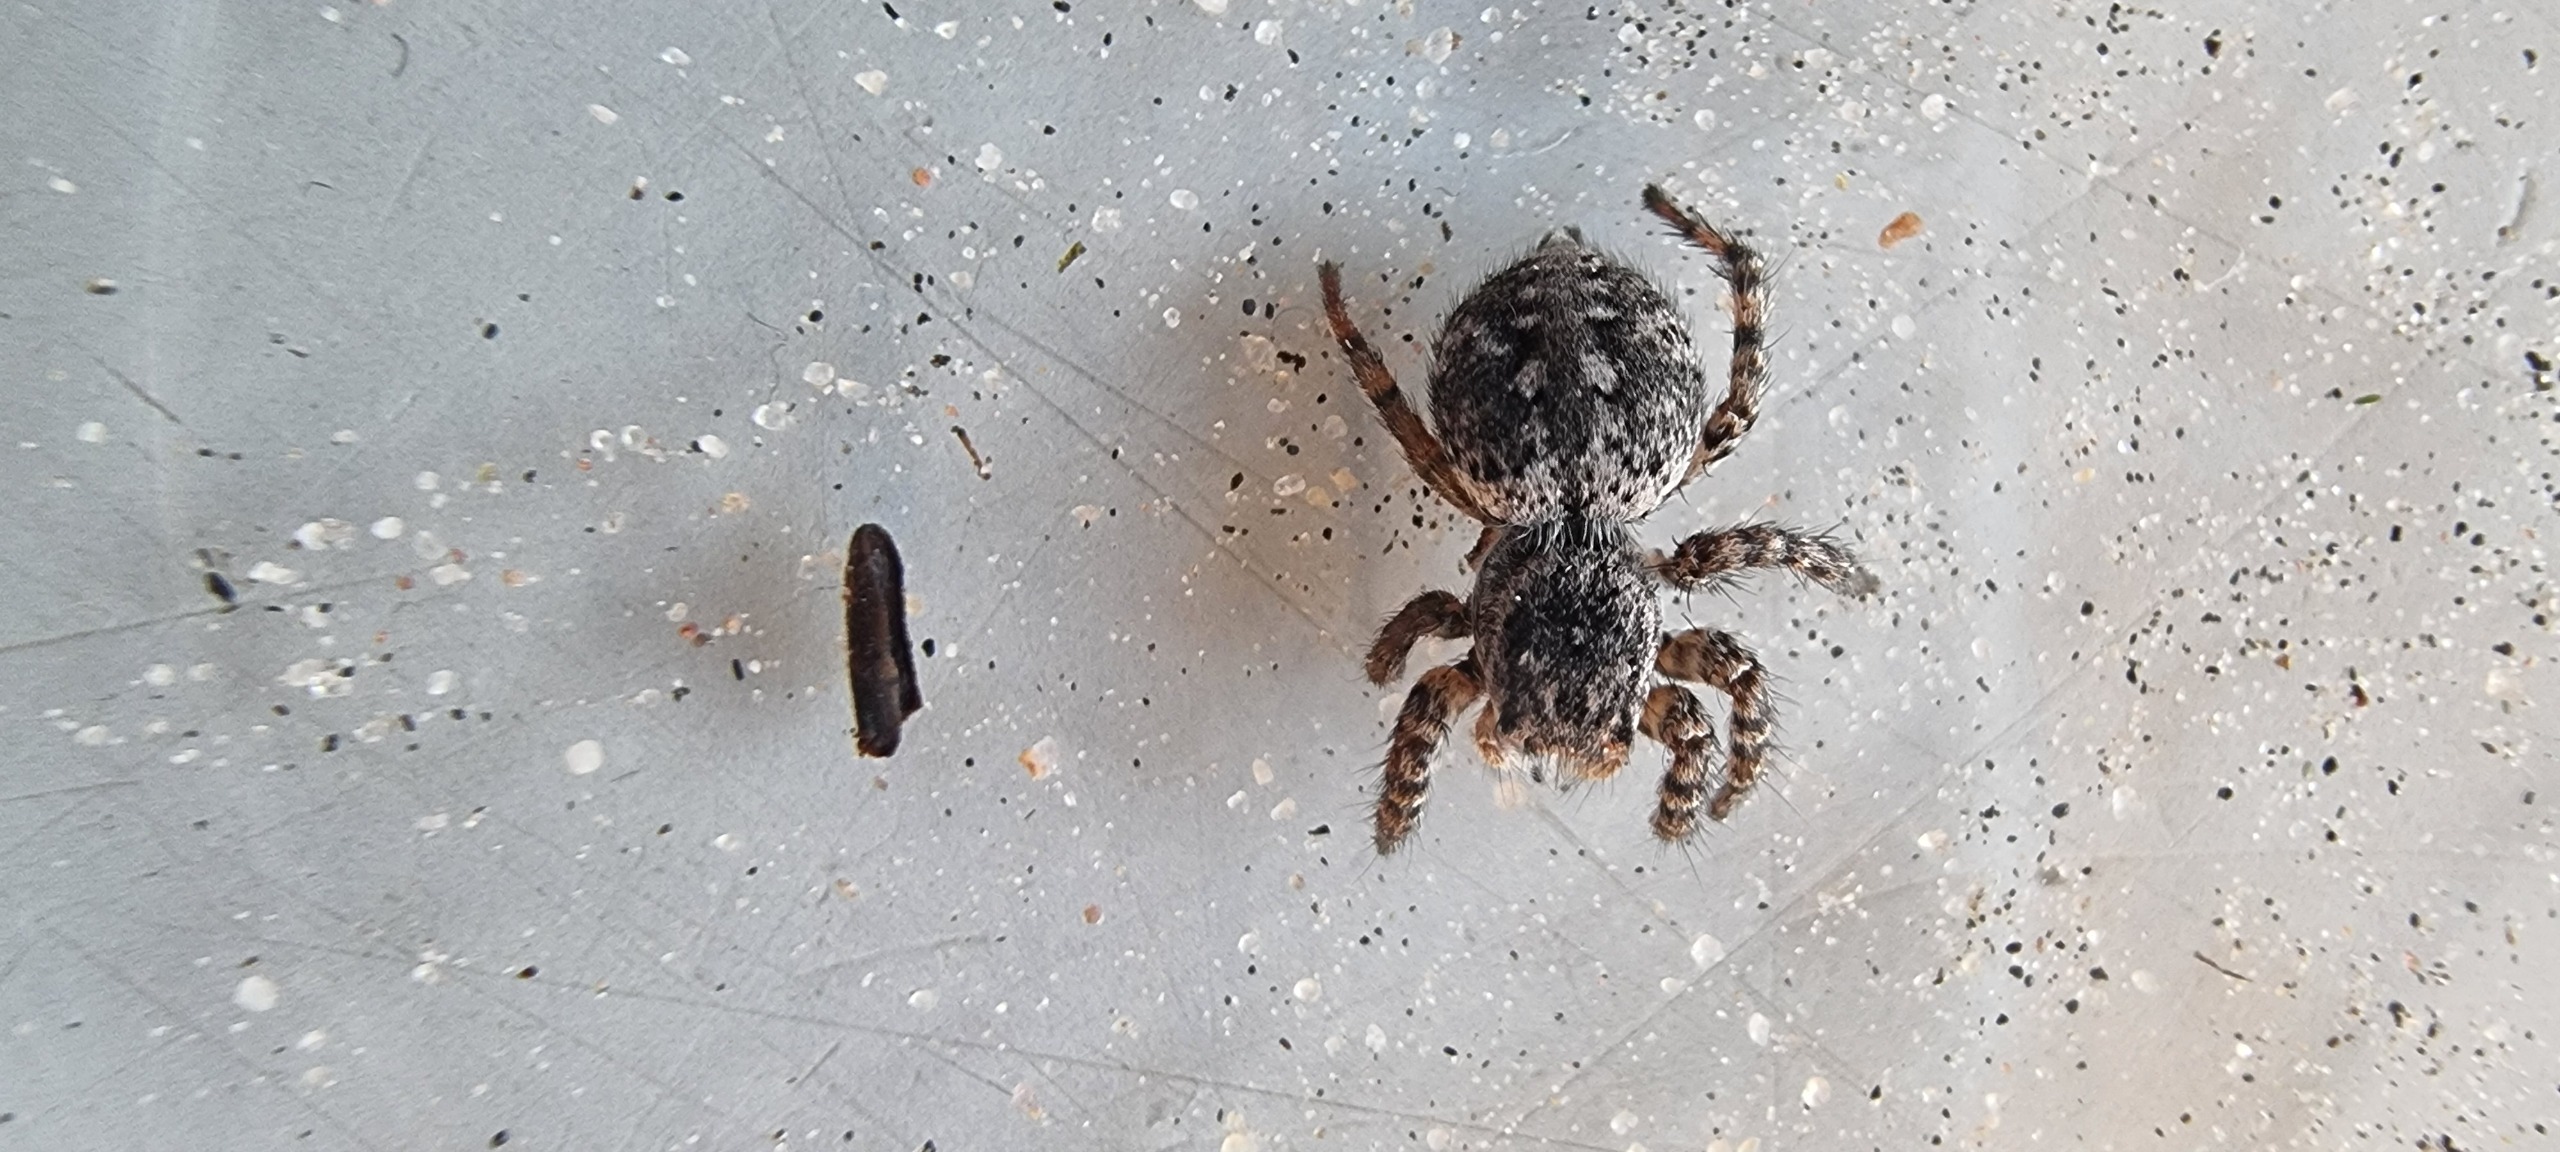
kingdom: Animalia
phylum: Arthropoda
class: Arachnida
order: Araneae
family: Salticidae
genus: Aelurillus
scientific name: Aelurillus v-insignitus
